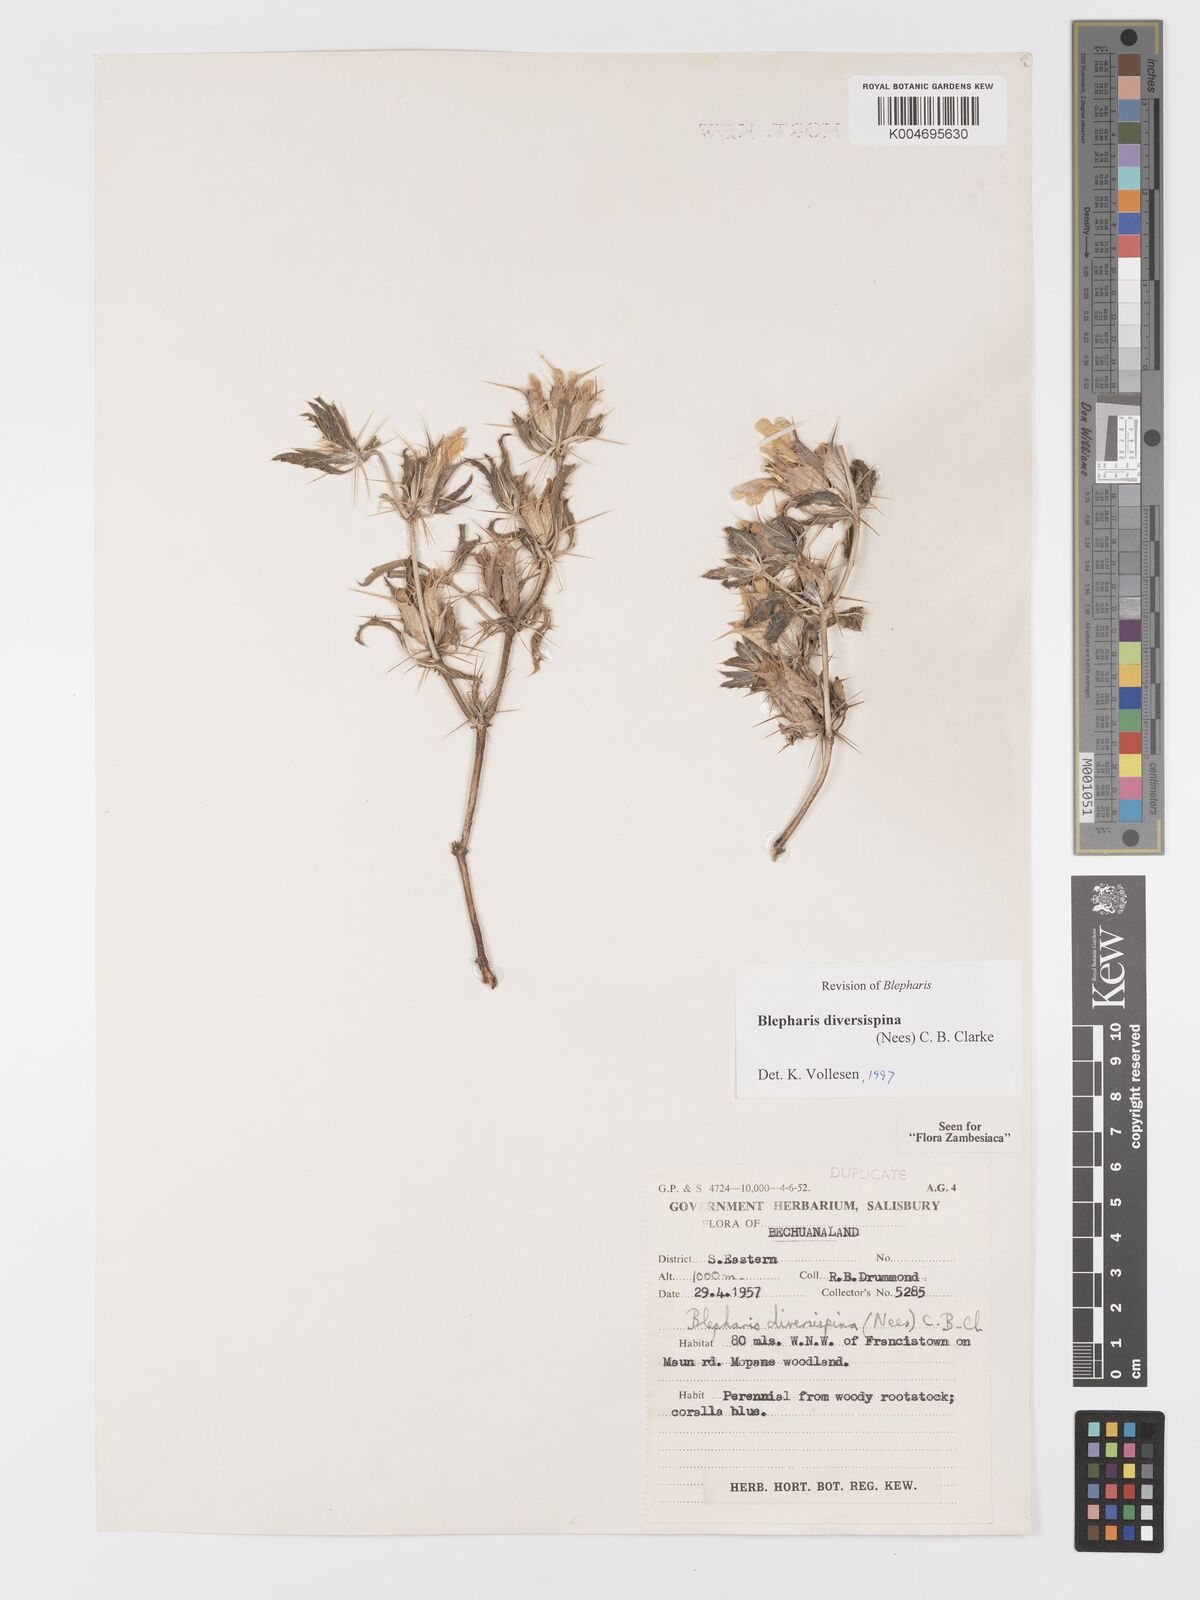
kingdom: Plantae
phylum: Tracheophyta
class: Magnoliopsida
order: Lamiales
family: Acanthaceae
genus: Blepharis
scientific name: Blepharis diversispina
